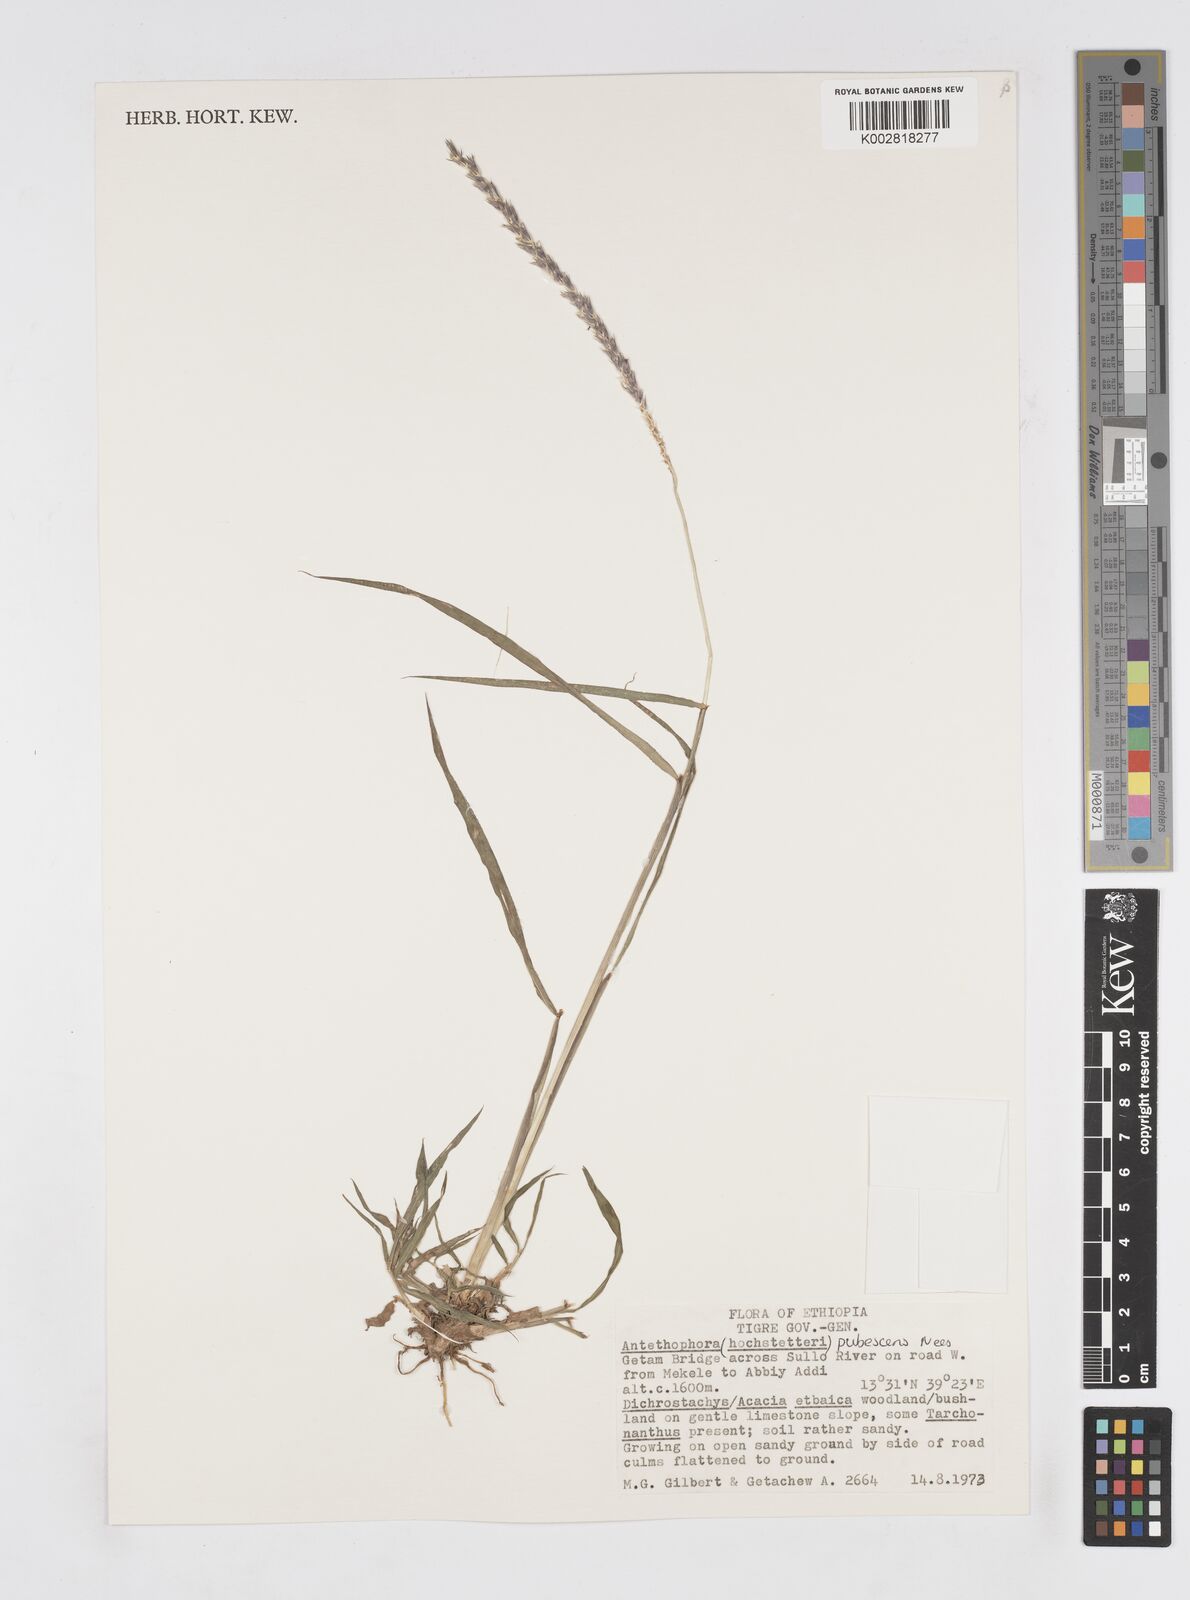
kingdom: Plantae
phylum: Tracheophyta
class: Liliopsida
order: Poales
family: Poaceae
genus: Anthephora
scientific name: Anthephora pubescens
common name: Wool grass
